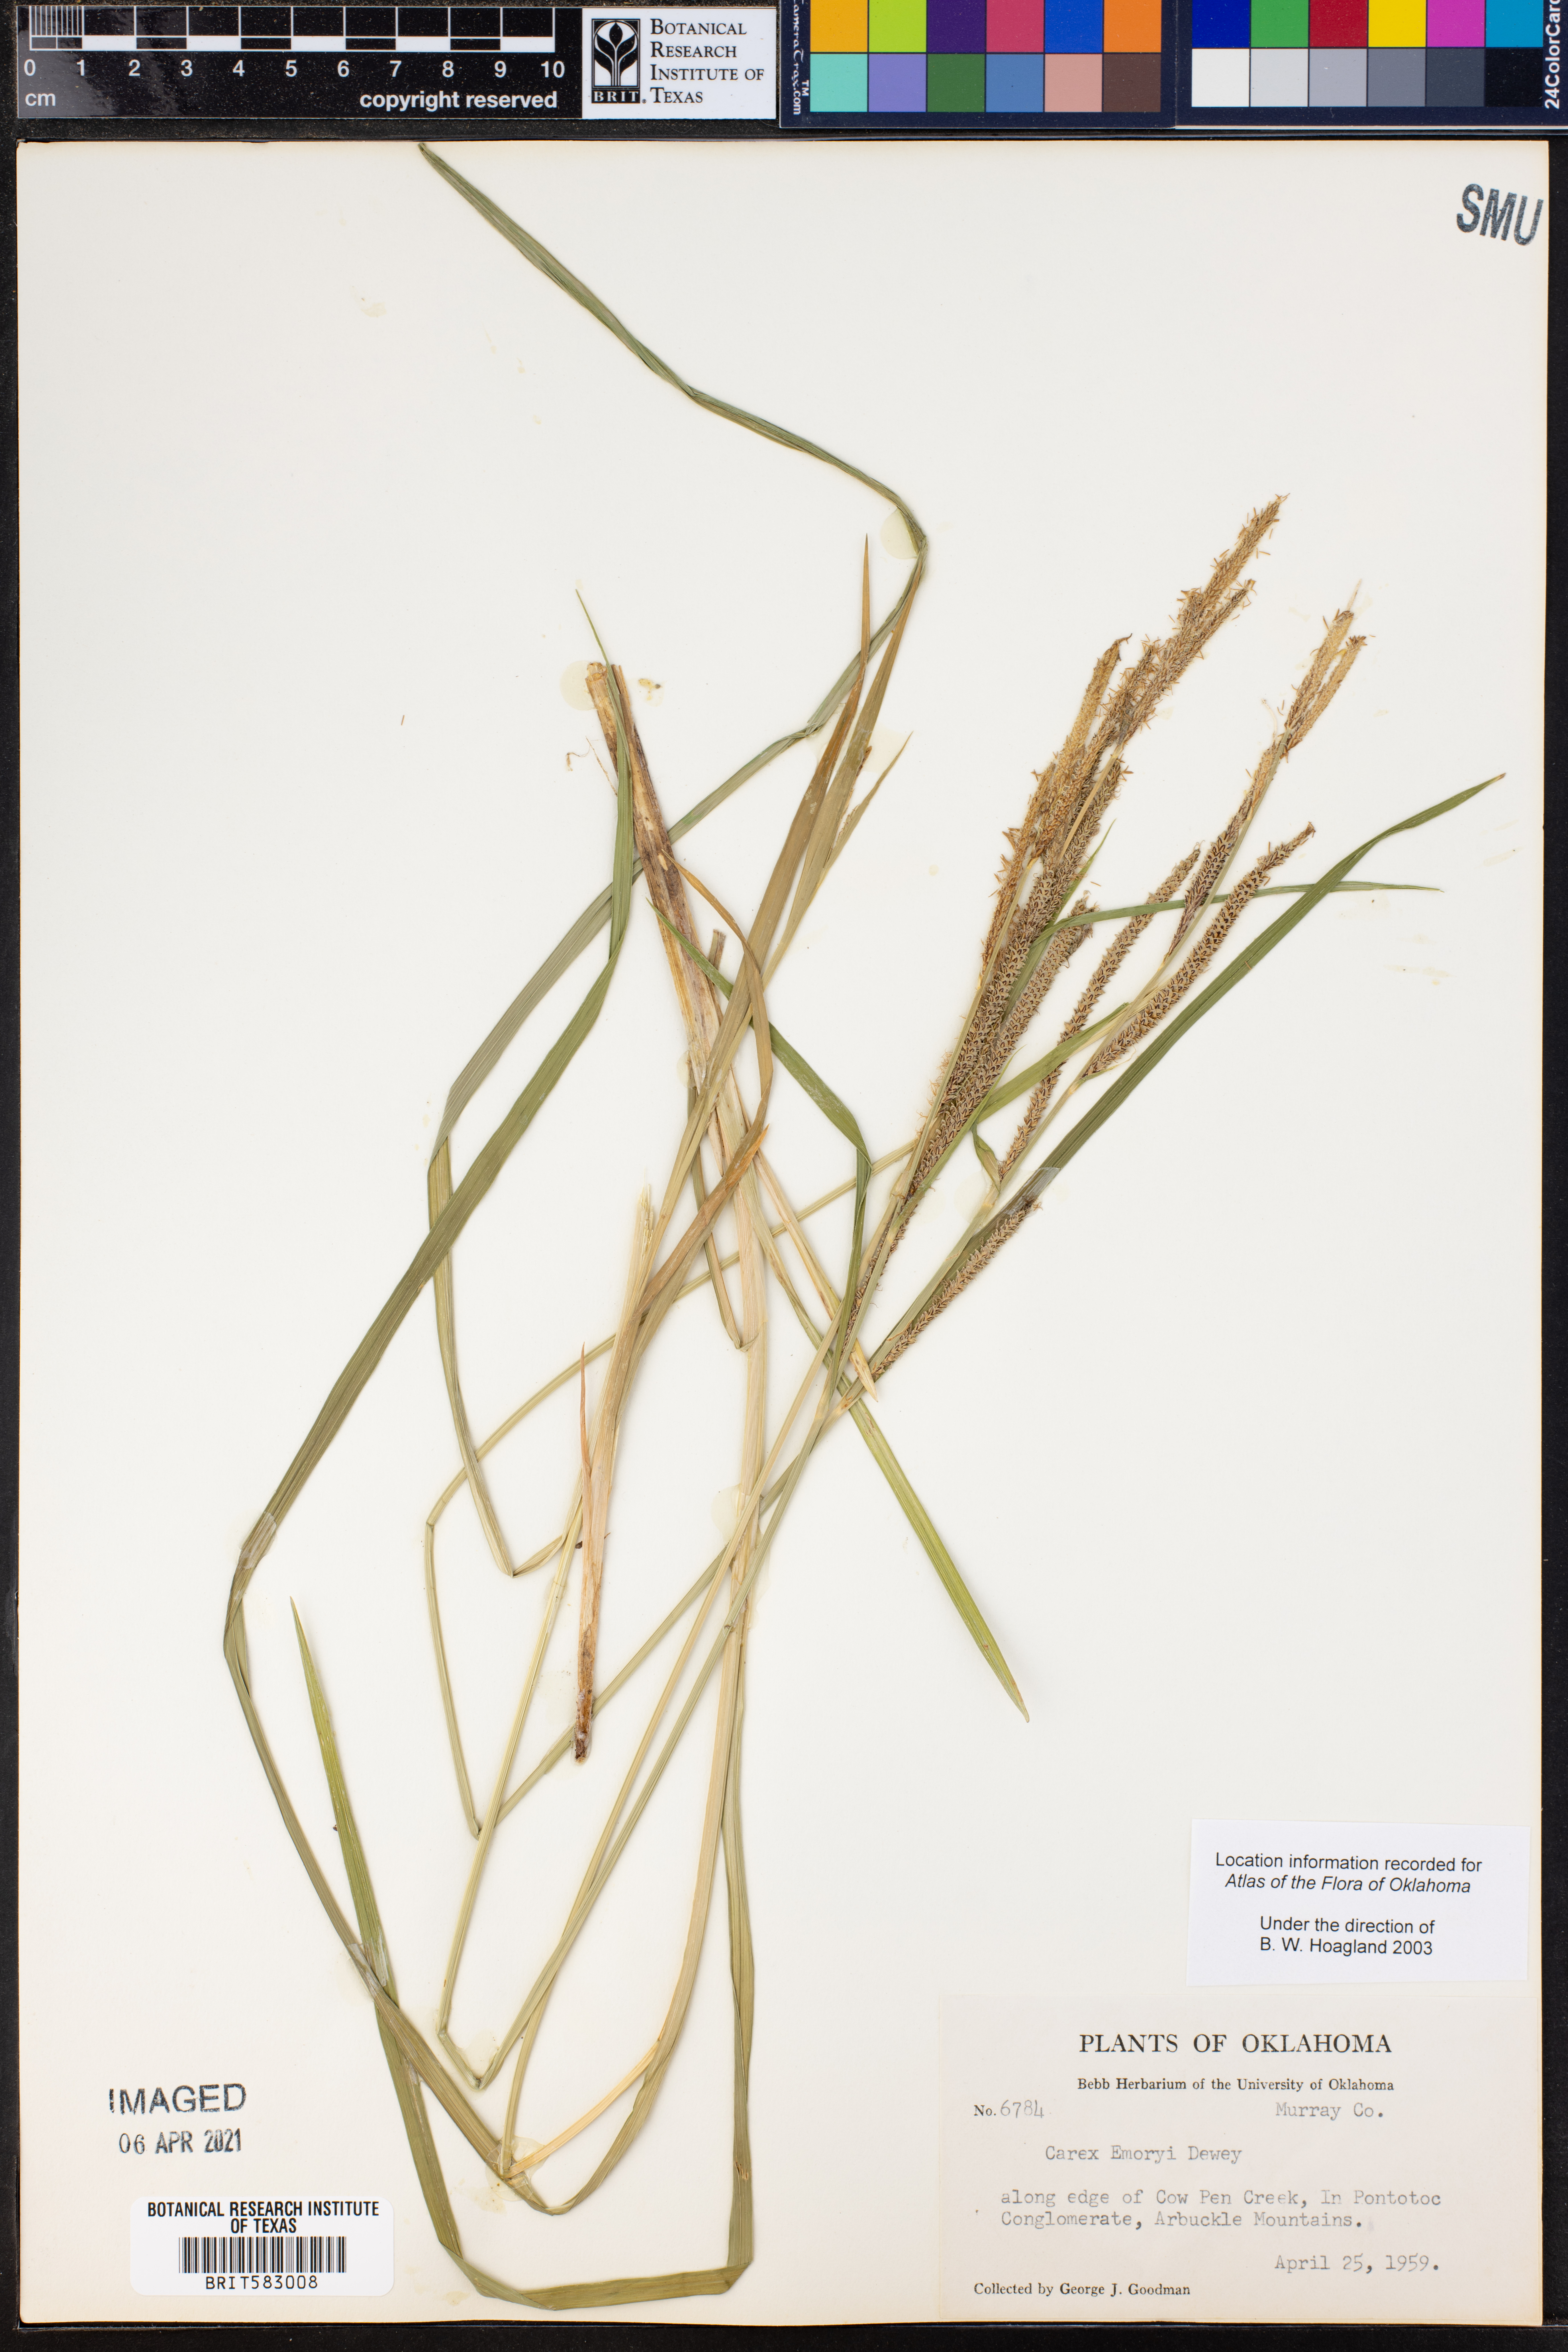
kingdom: Plantae
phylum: Tracheophyta
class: Liliopsida
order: Poales
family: Cyperaceae
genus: Carex
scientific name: Carex emoryi
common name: Emory's sedge
